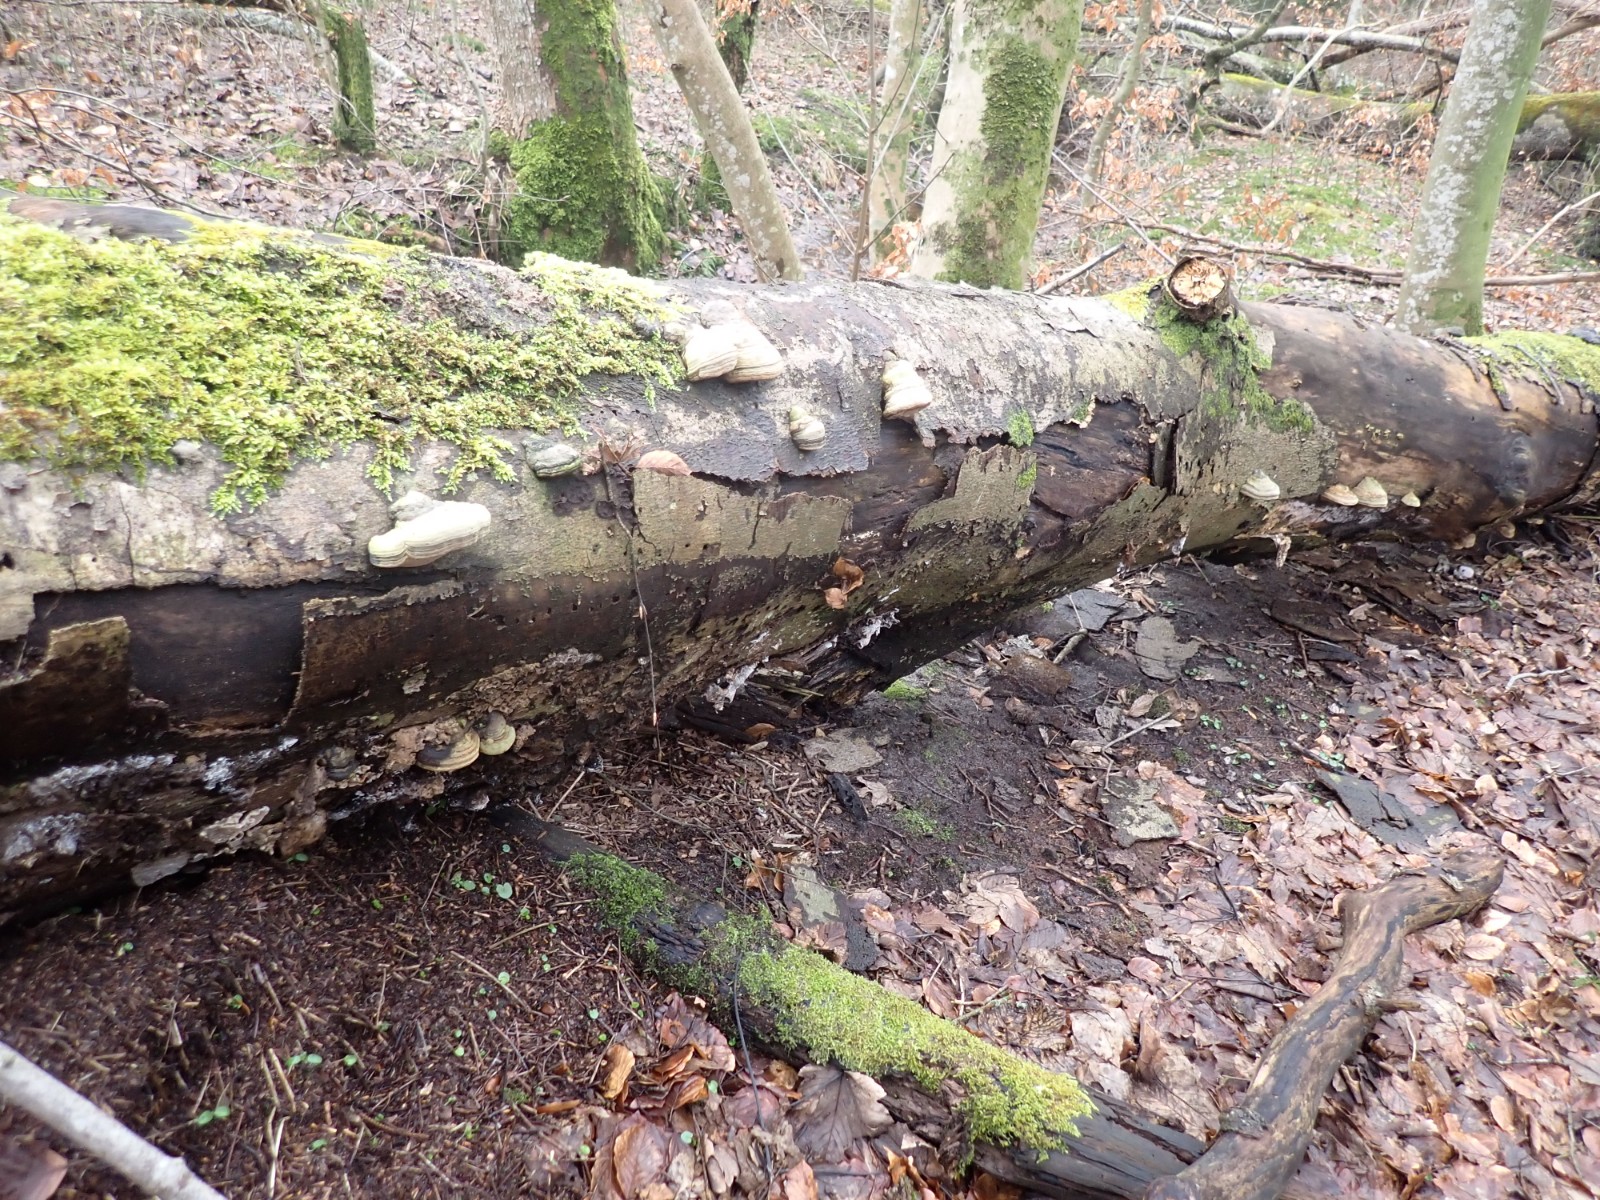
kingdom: Fungi
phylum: Basidiomycota
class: Agaricomycetes
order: Polyporales
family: Polyporaceae
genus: Fomes
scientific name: Fomes fomentarius
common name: tøndersvamp
